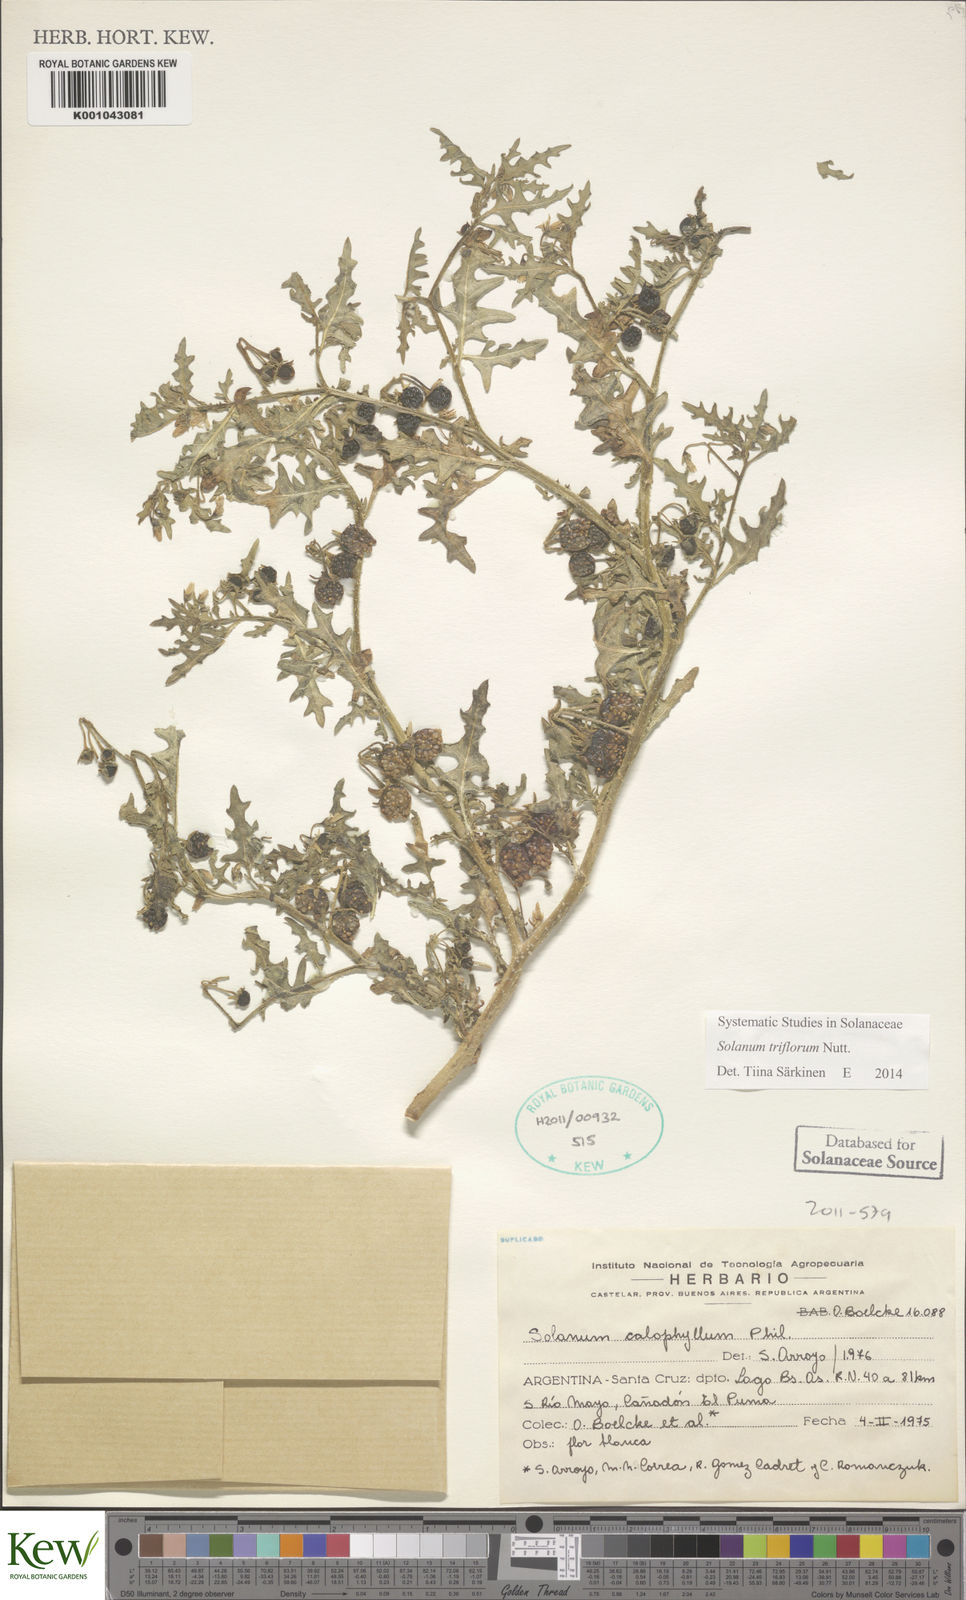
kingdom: Plantae
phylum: Tracheophyta
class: Magnoliopsida
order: Solanales
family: Solanaceae
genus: Solanum
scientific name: Solanum triflorum
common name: Small nightshade
